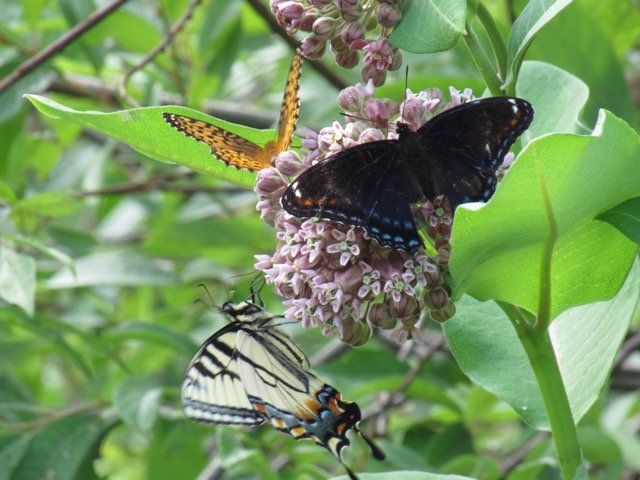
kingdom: Animalia
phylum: Arthropoda
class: Insecta
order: Lepidoptera
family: Nymphalidae
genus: Limenitis
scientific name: Limenitis
